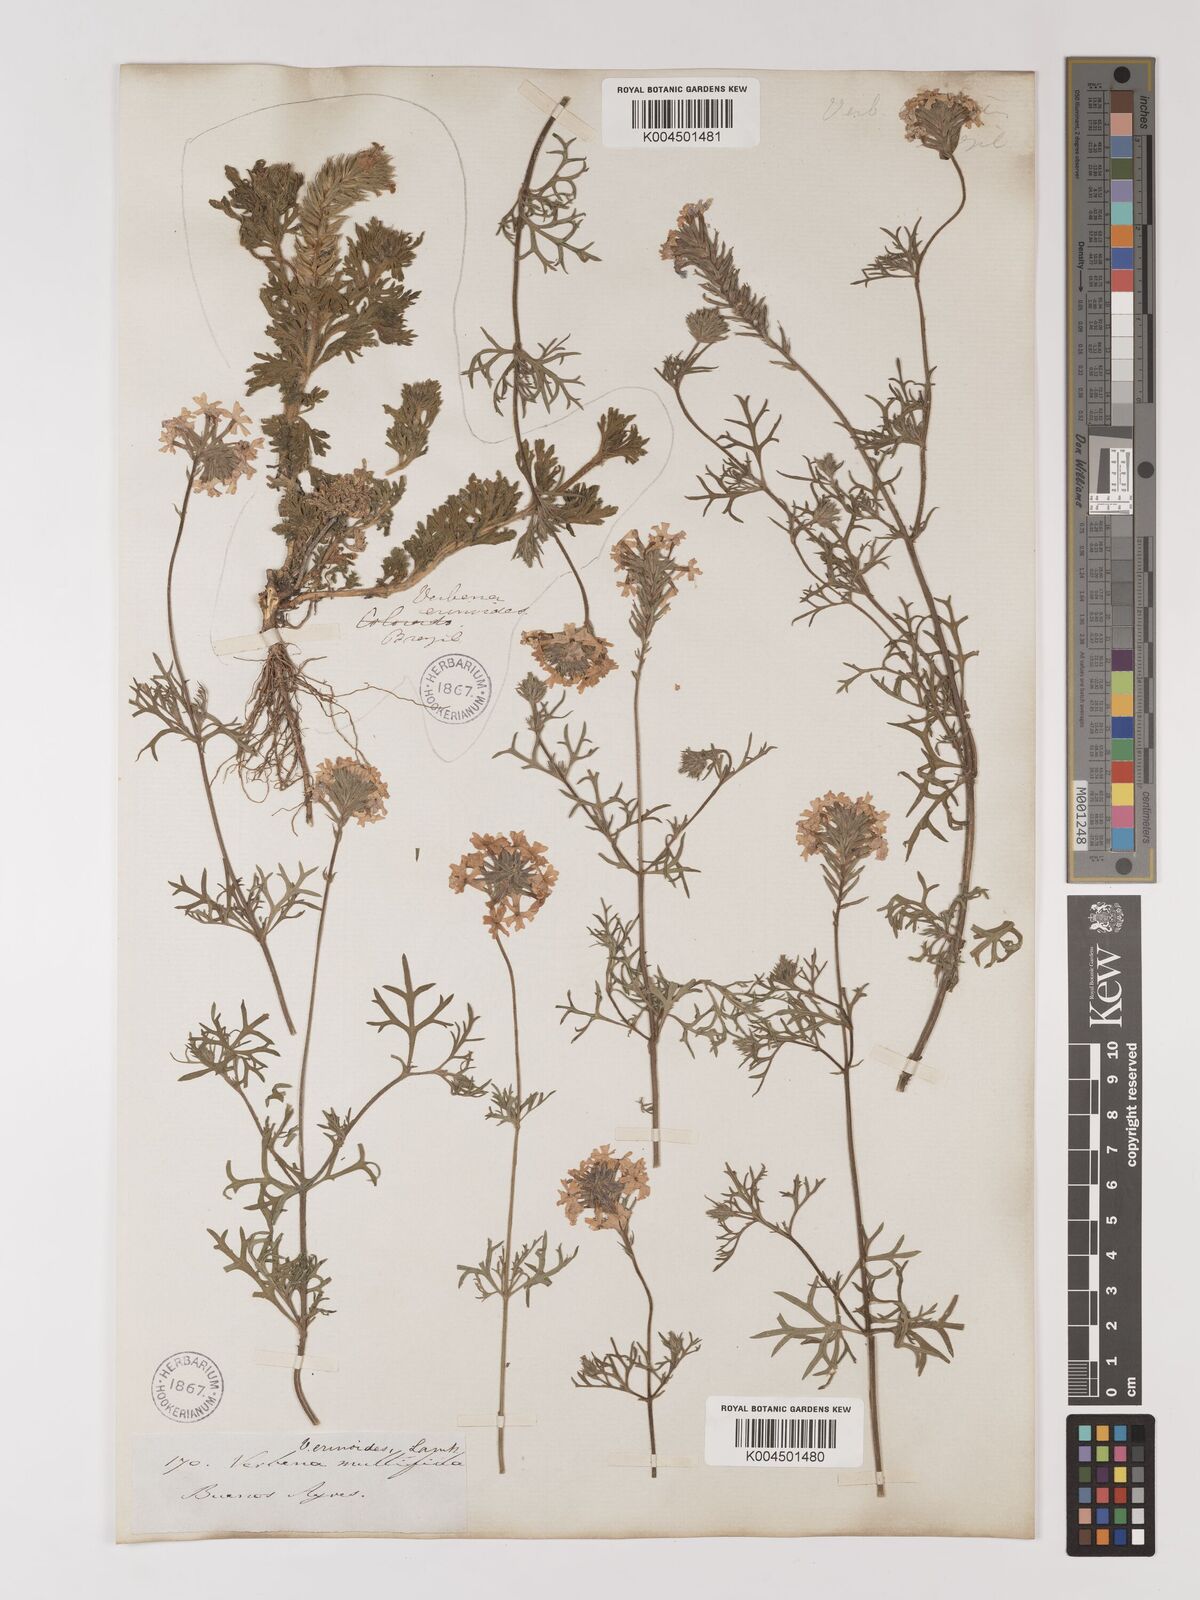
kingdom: Plantae
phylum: Tracheophyta
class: Magnoliopsida
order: Lamiales
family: Verbenaceae
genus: Verbena
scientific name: Verbena tenera
